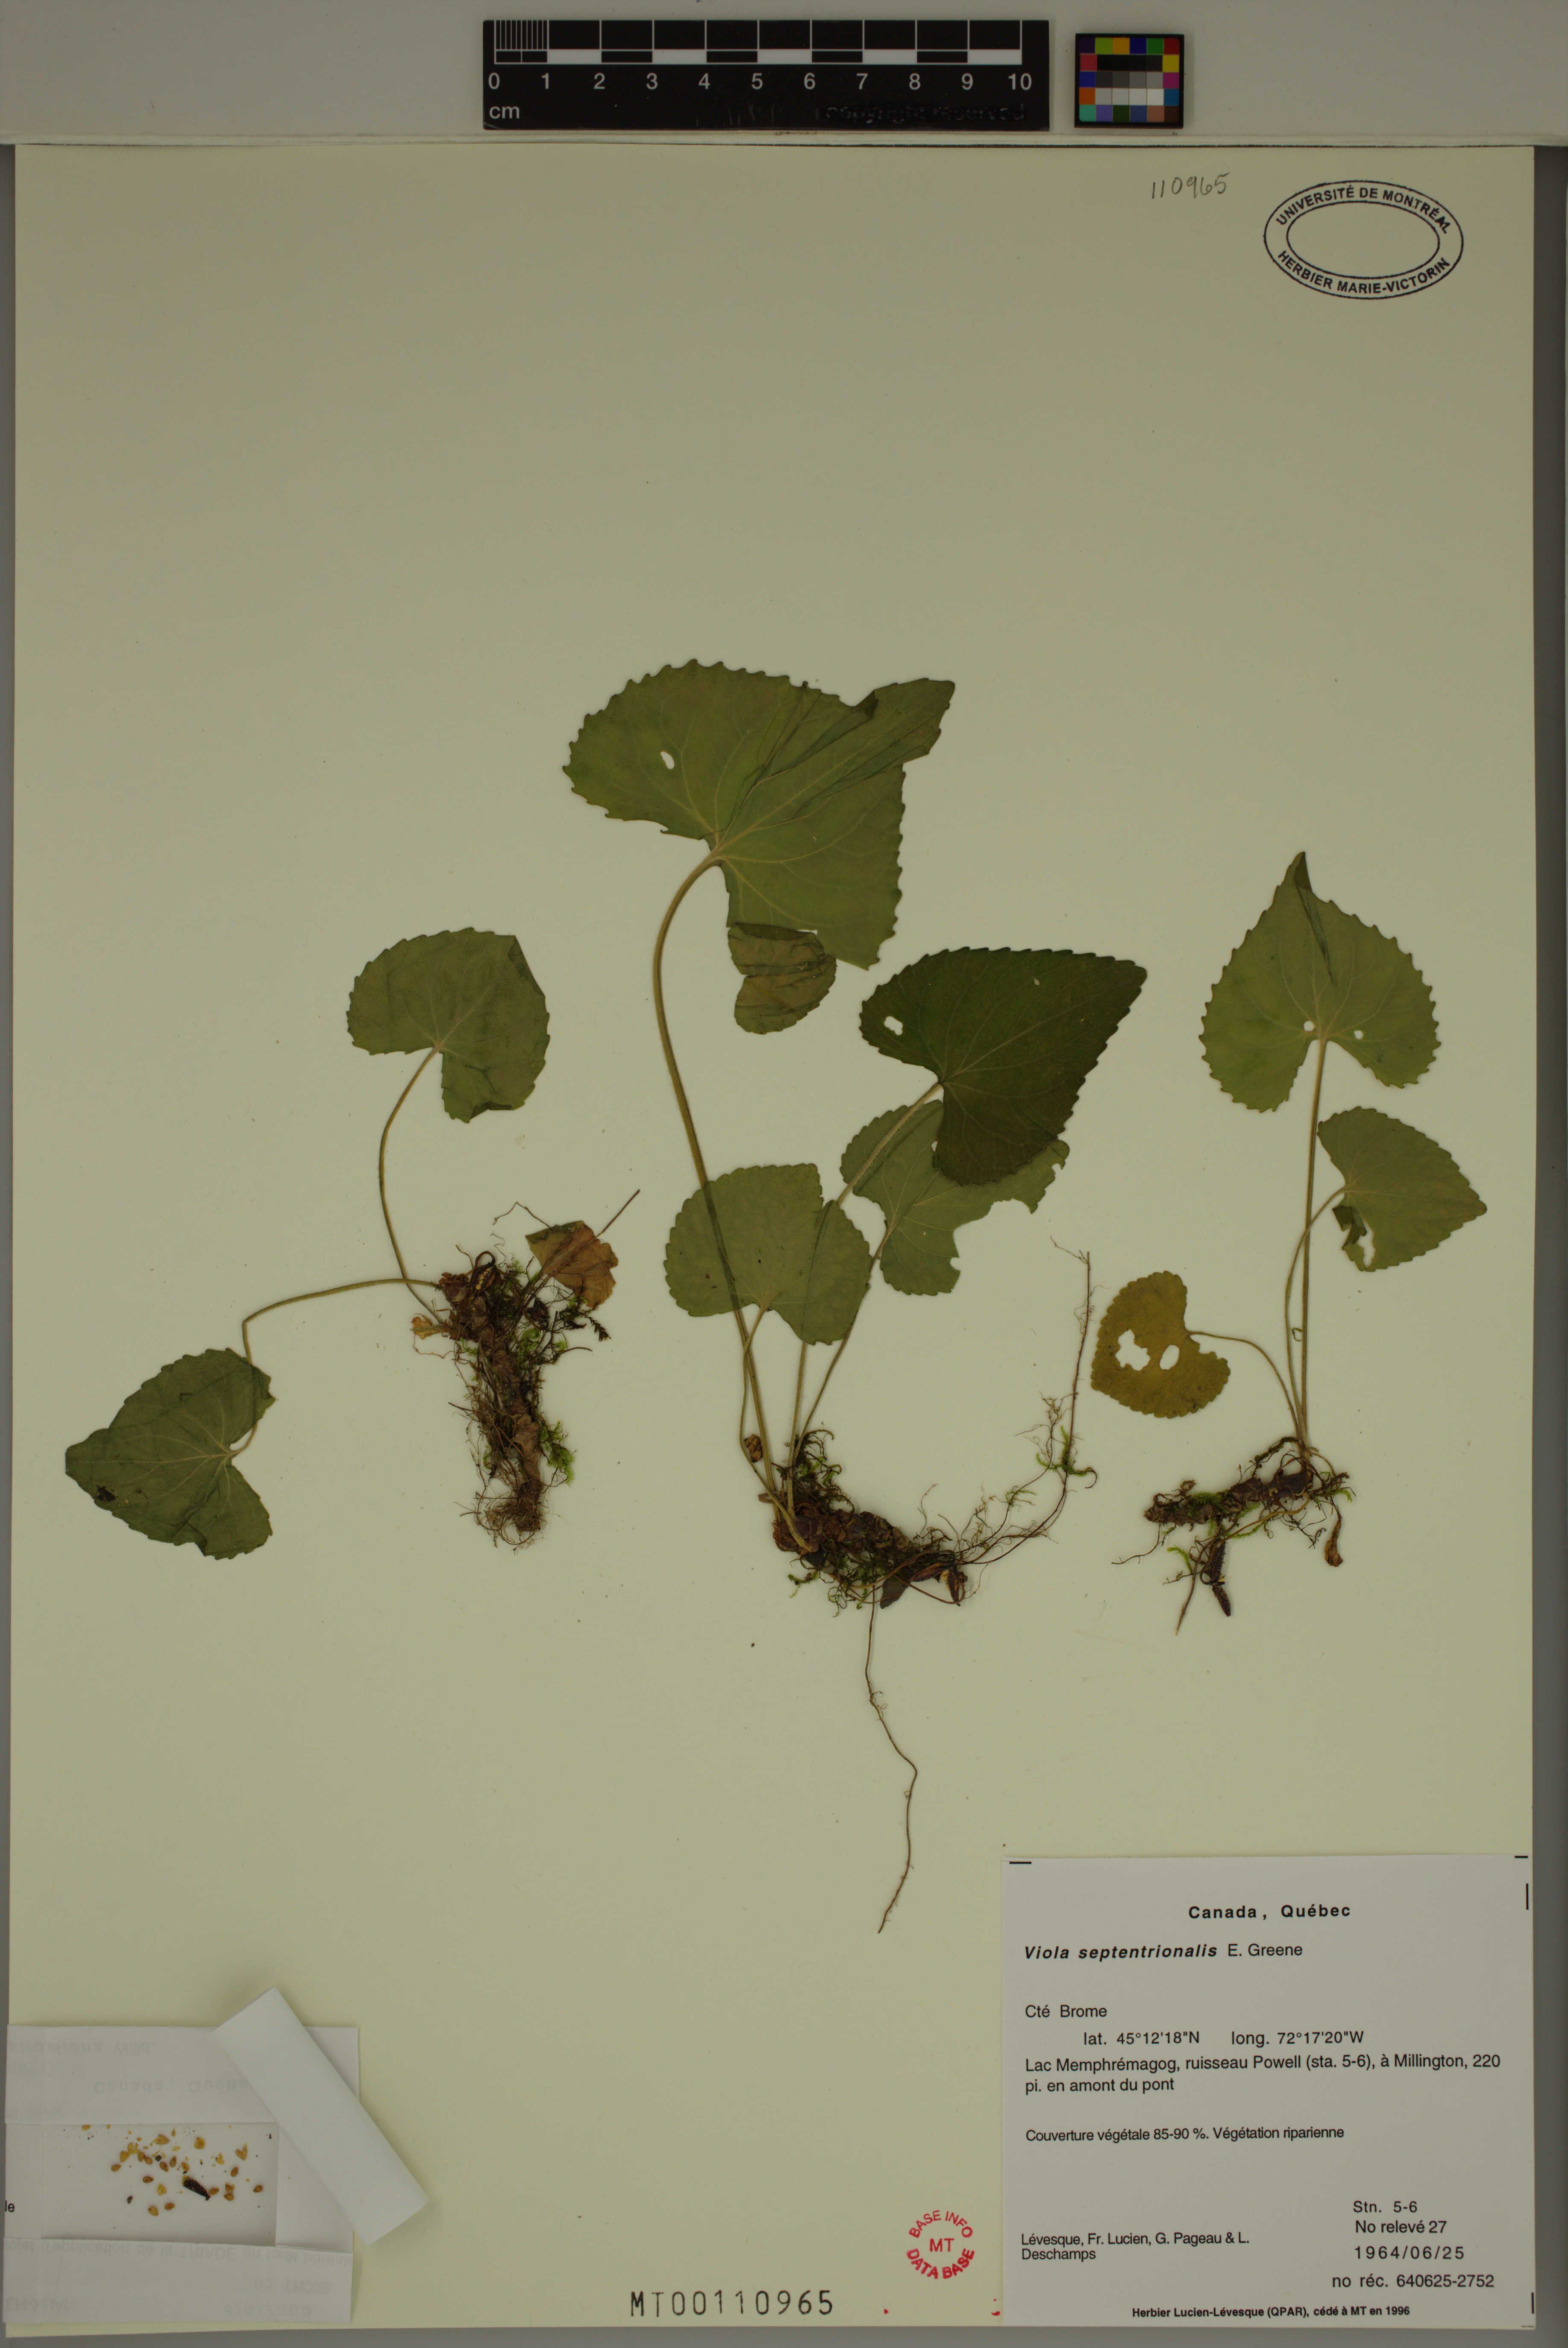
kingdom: Plantae
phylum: Tracheophyta
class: Magnoliopsida
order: Malpighiales
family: Violaceae
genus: Viola
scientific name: Viola sororia
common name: Dooryard violet
